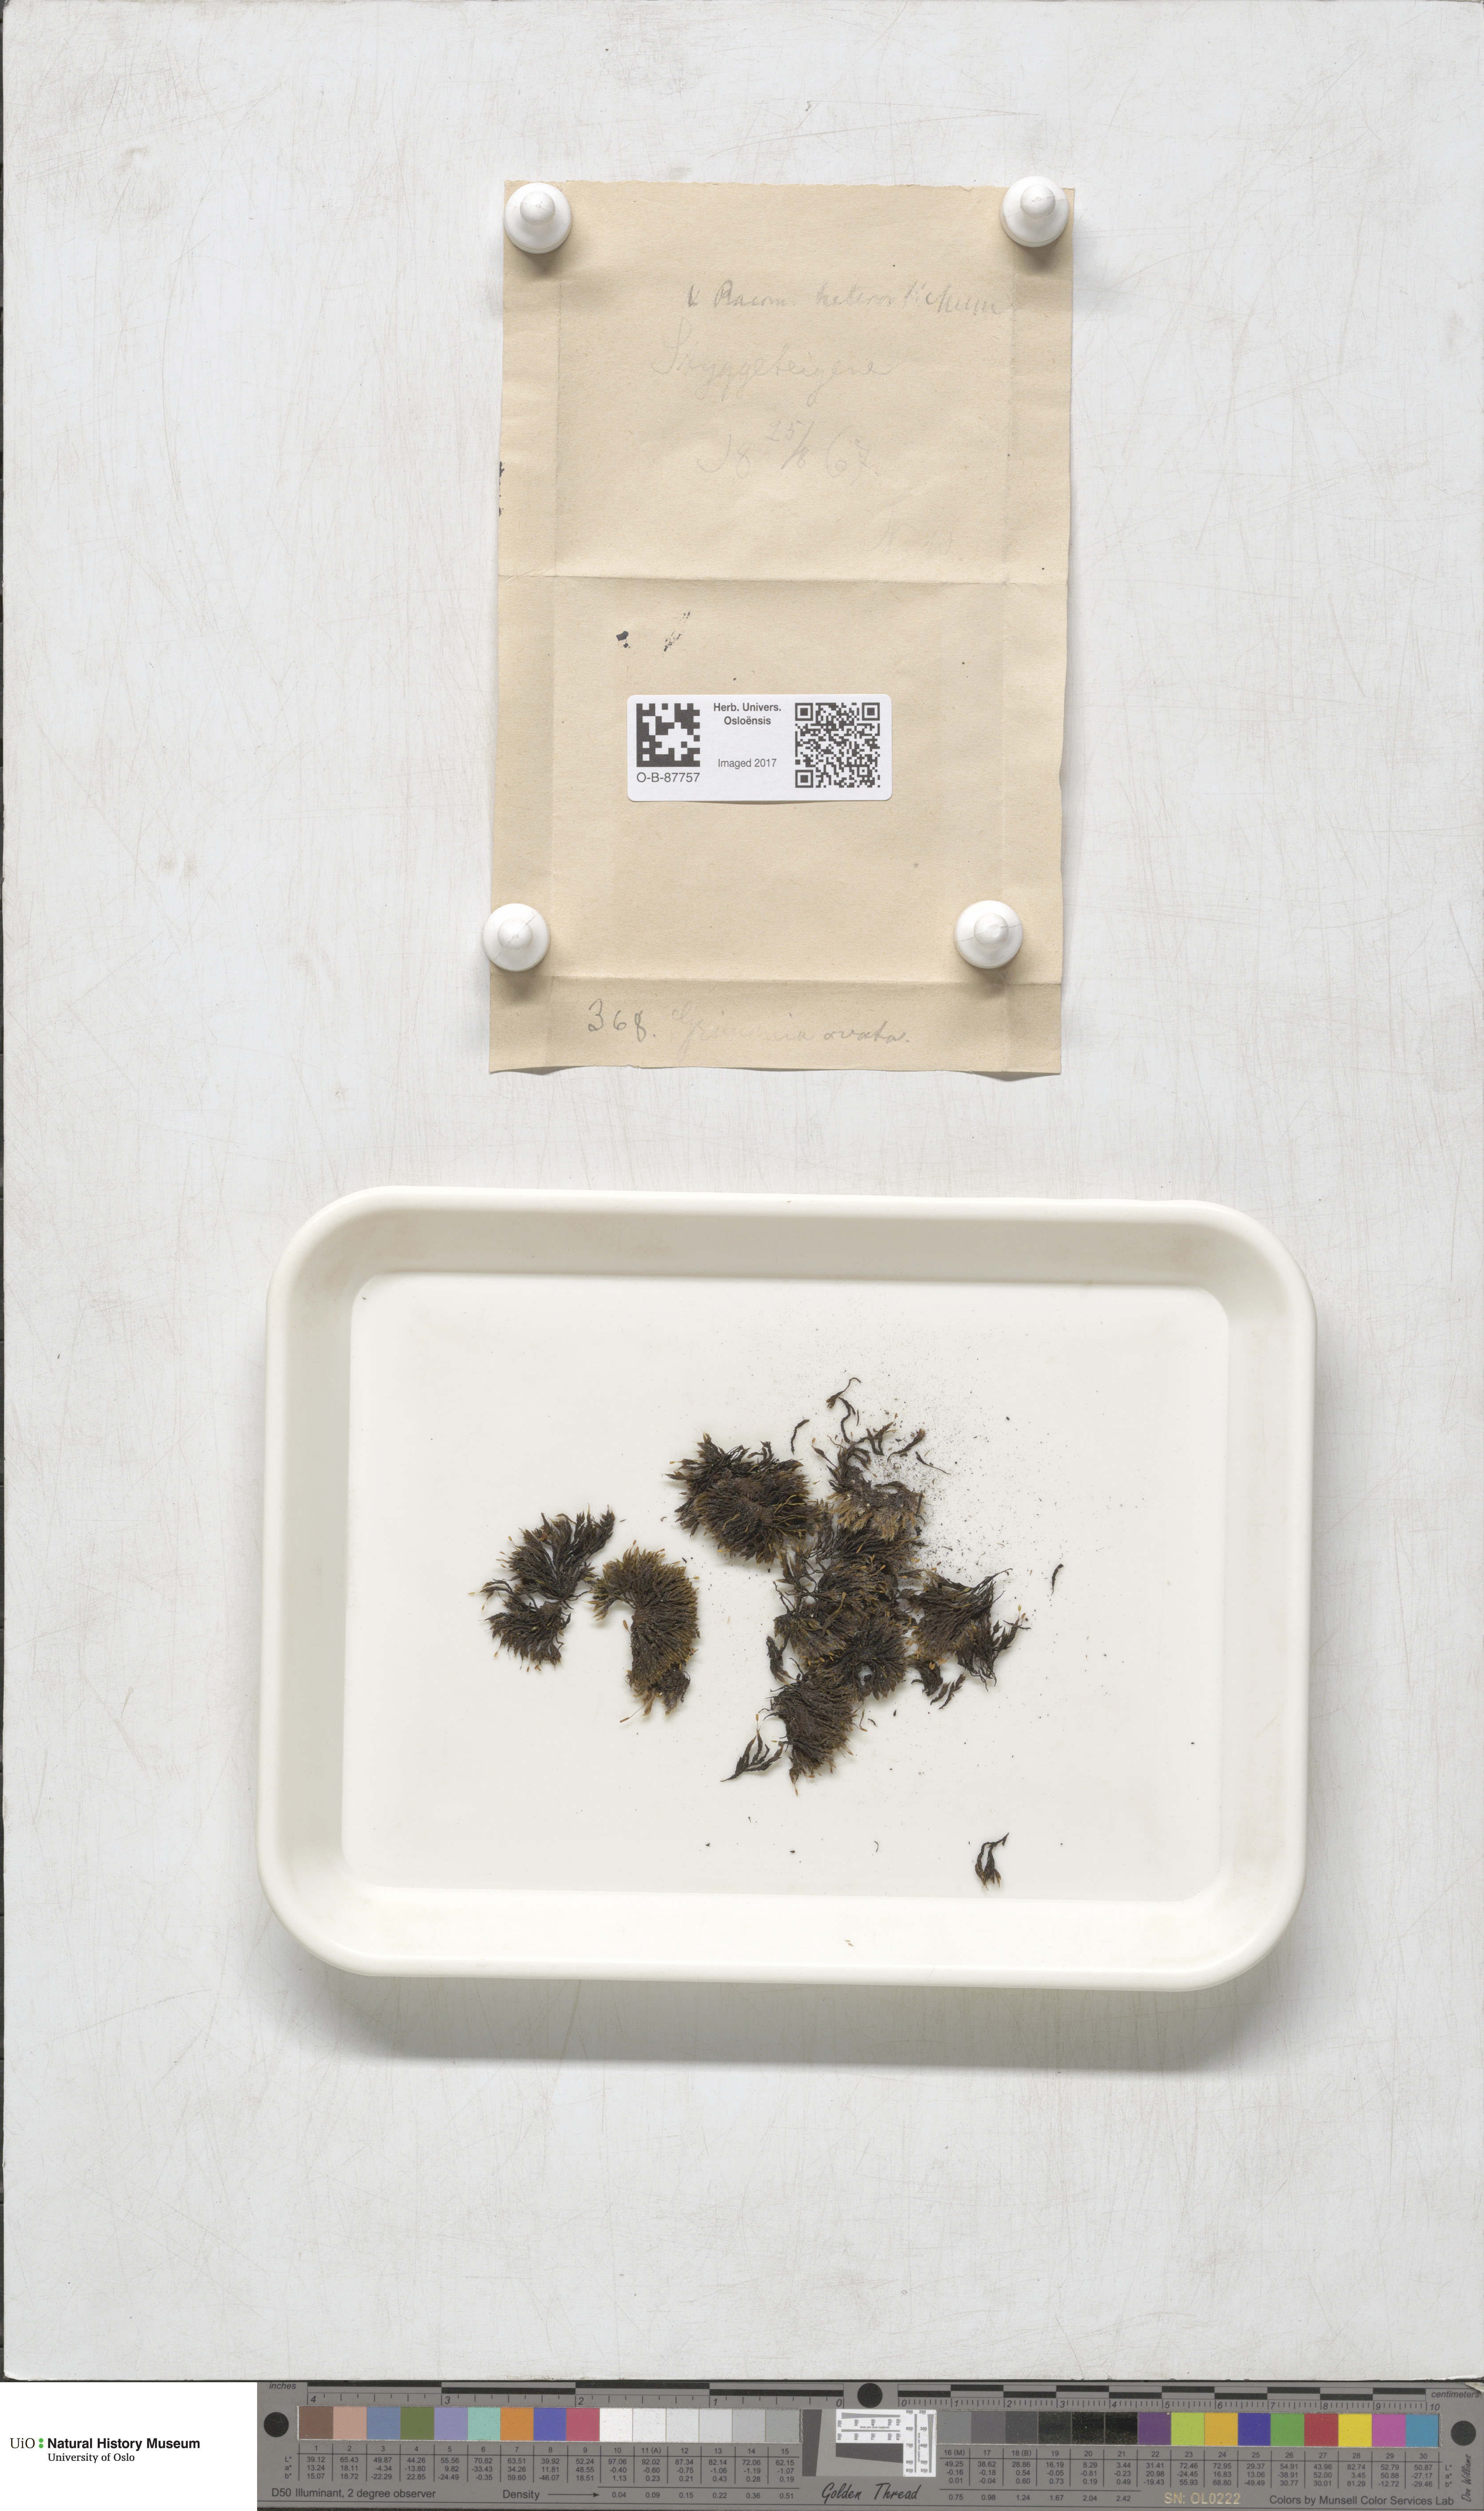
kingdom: Plantae
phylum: Bryophyta
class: Bryopsida
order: Grimmiales
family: Grimmiaceae
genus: Grimmia
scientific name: Grimmia ovalis
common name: Oval grimmia
